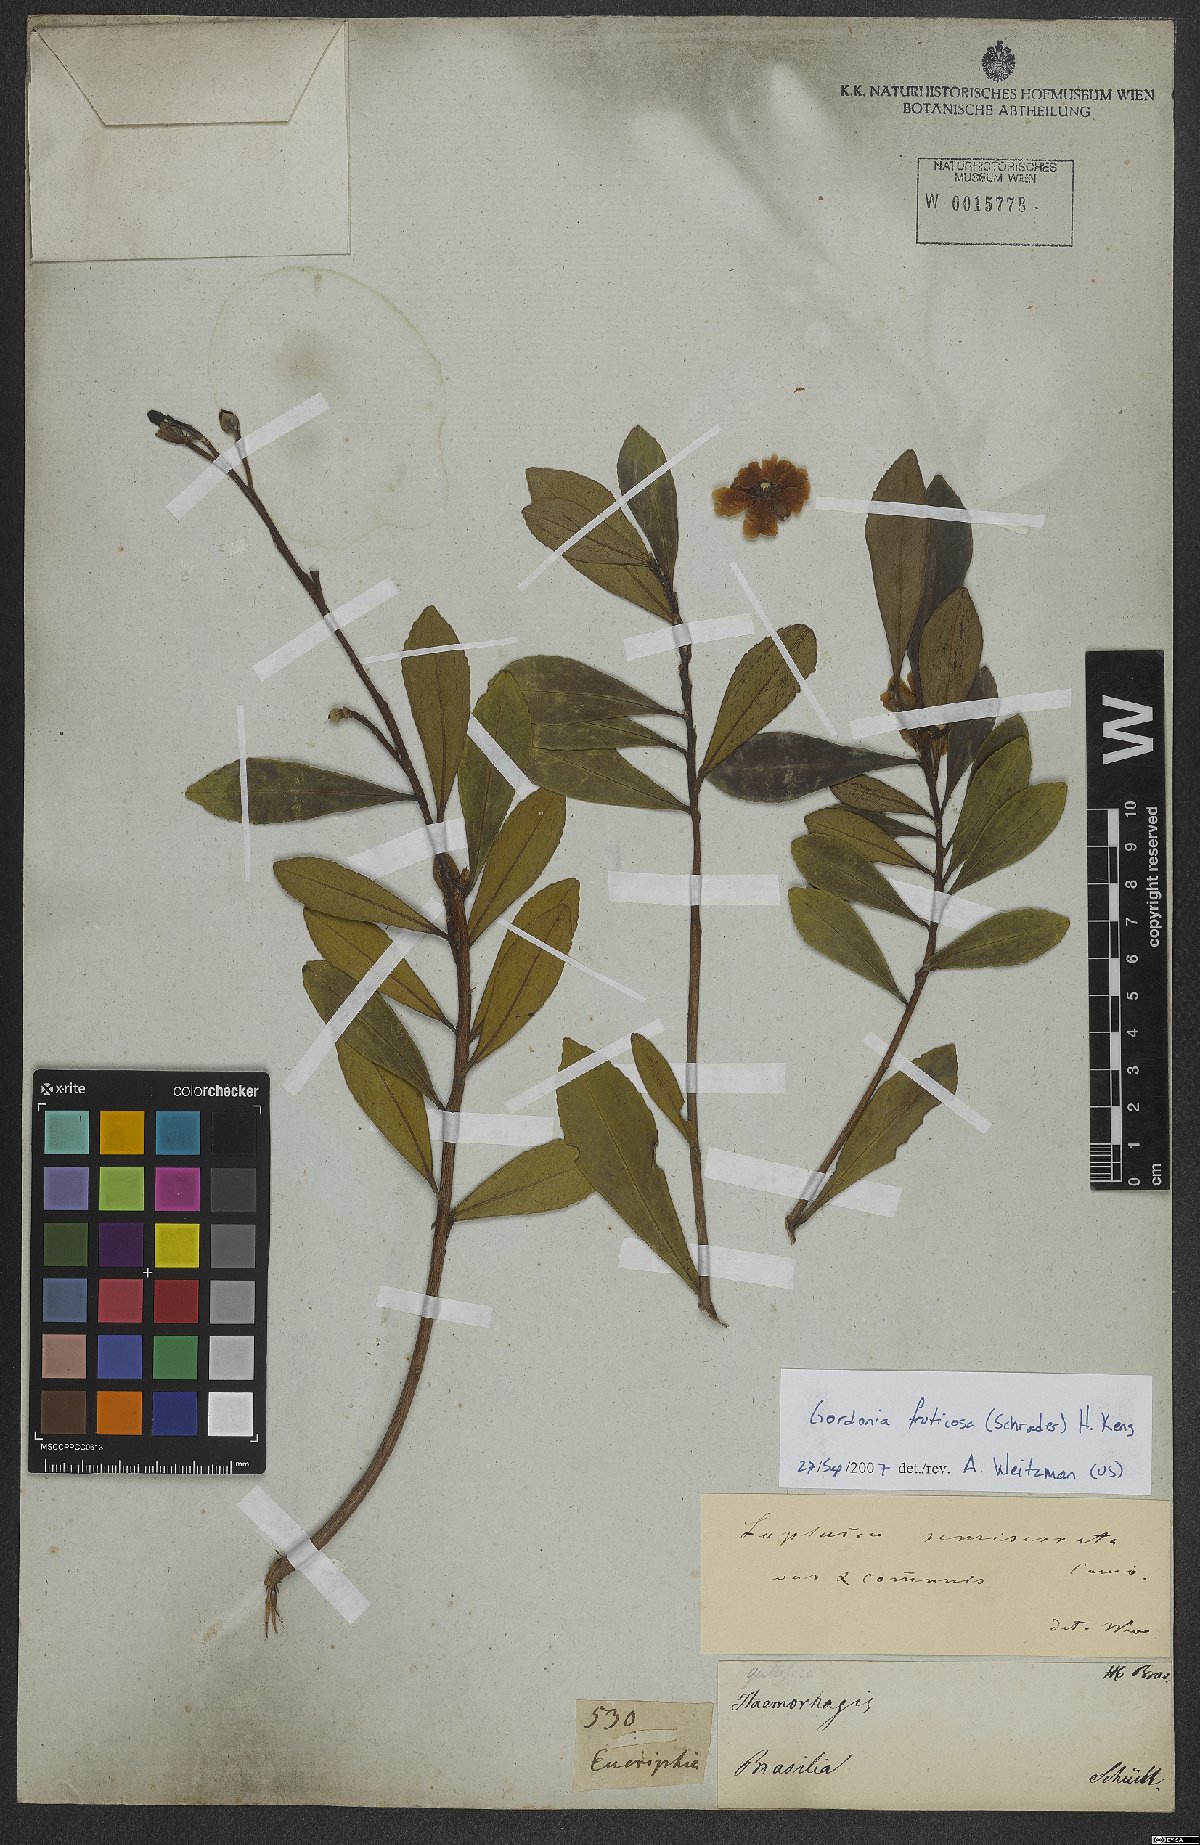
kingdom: Plantae
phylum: Tracheophyta
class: Magnoliopsida
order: Ericales
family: Theaceae
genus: Gordonia
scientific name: Gordonia fruticosa
